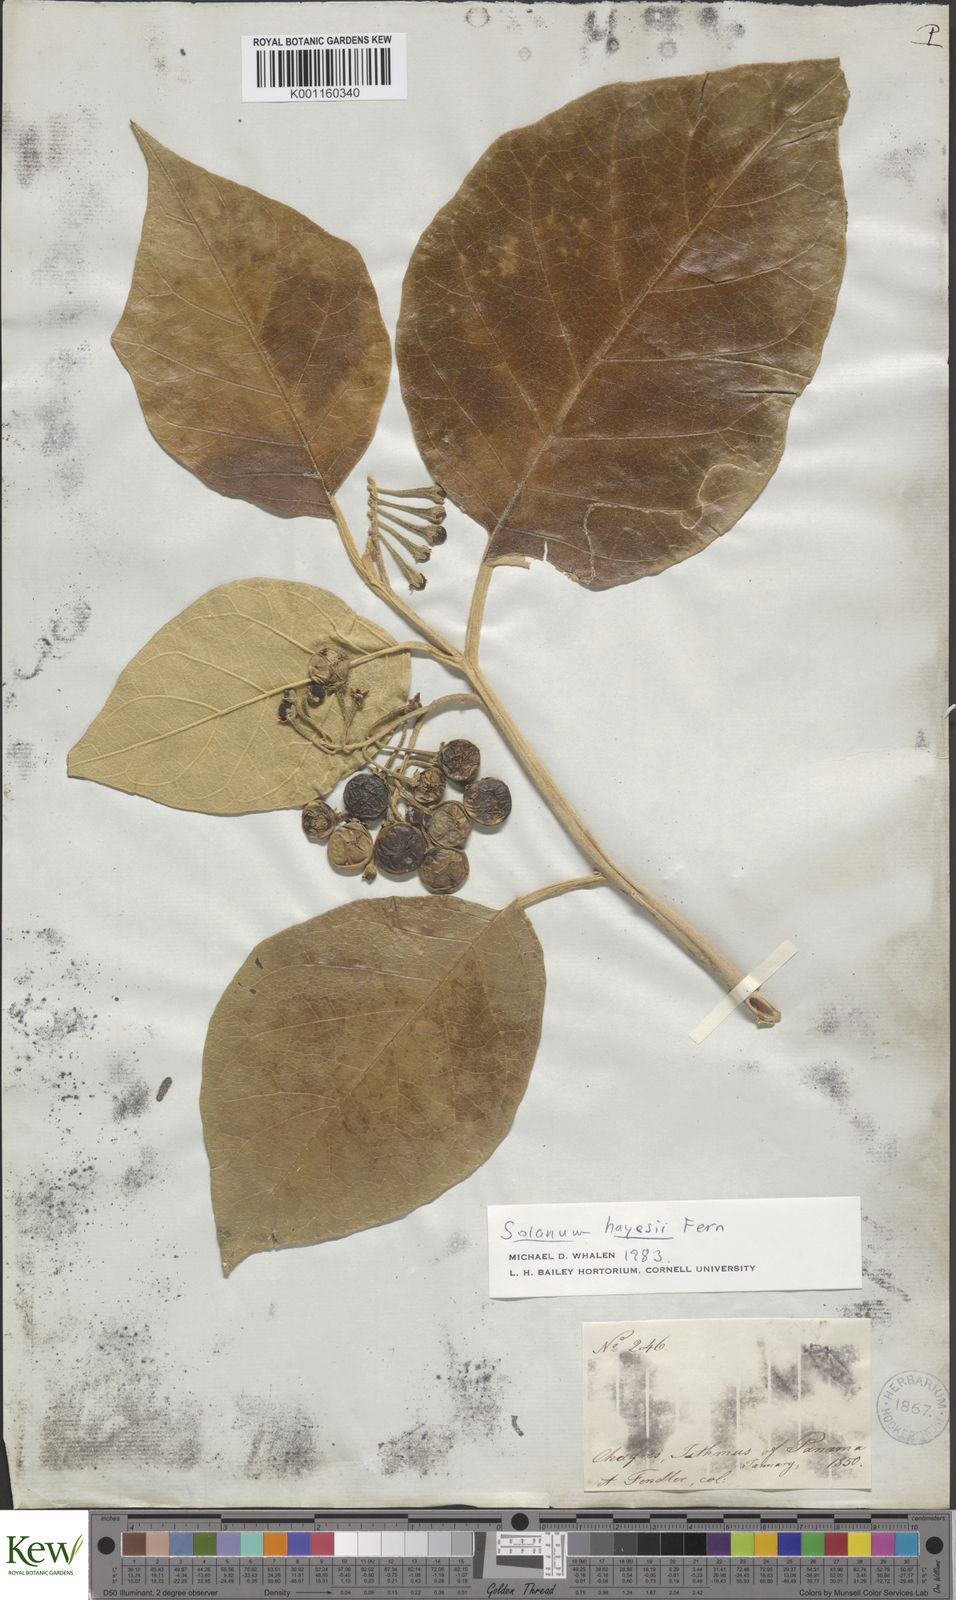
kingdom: Plantae
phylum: Tracheophyta
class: Magnoliopsida
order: Solanales
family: Solanaceae
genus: Solanum
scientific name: Solanum hayesii
